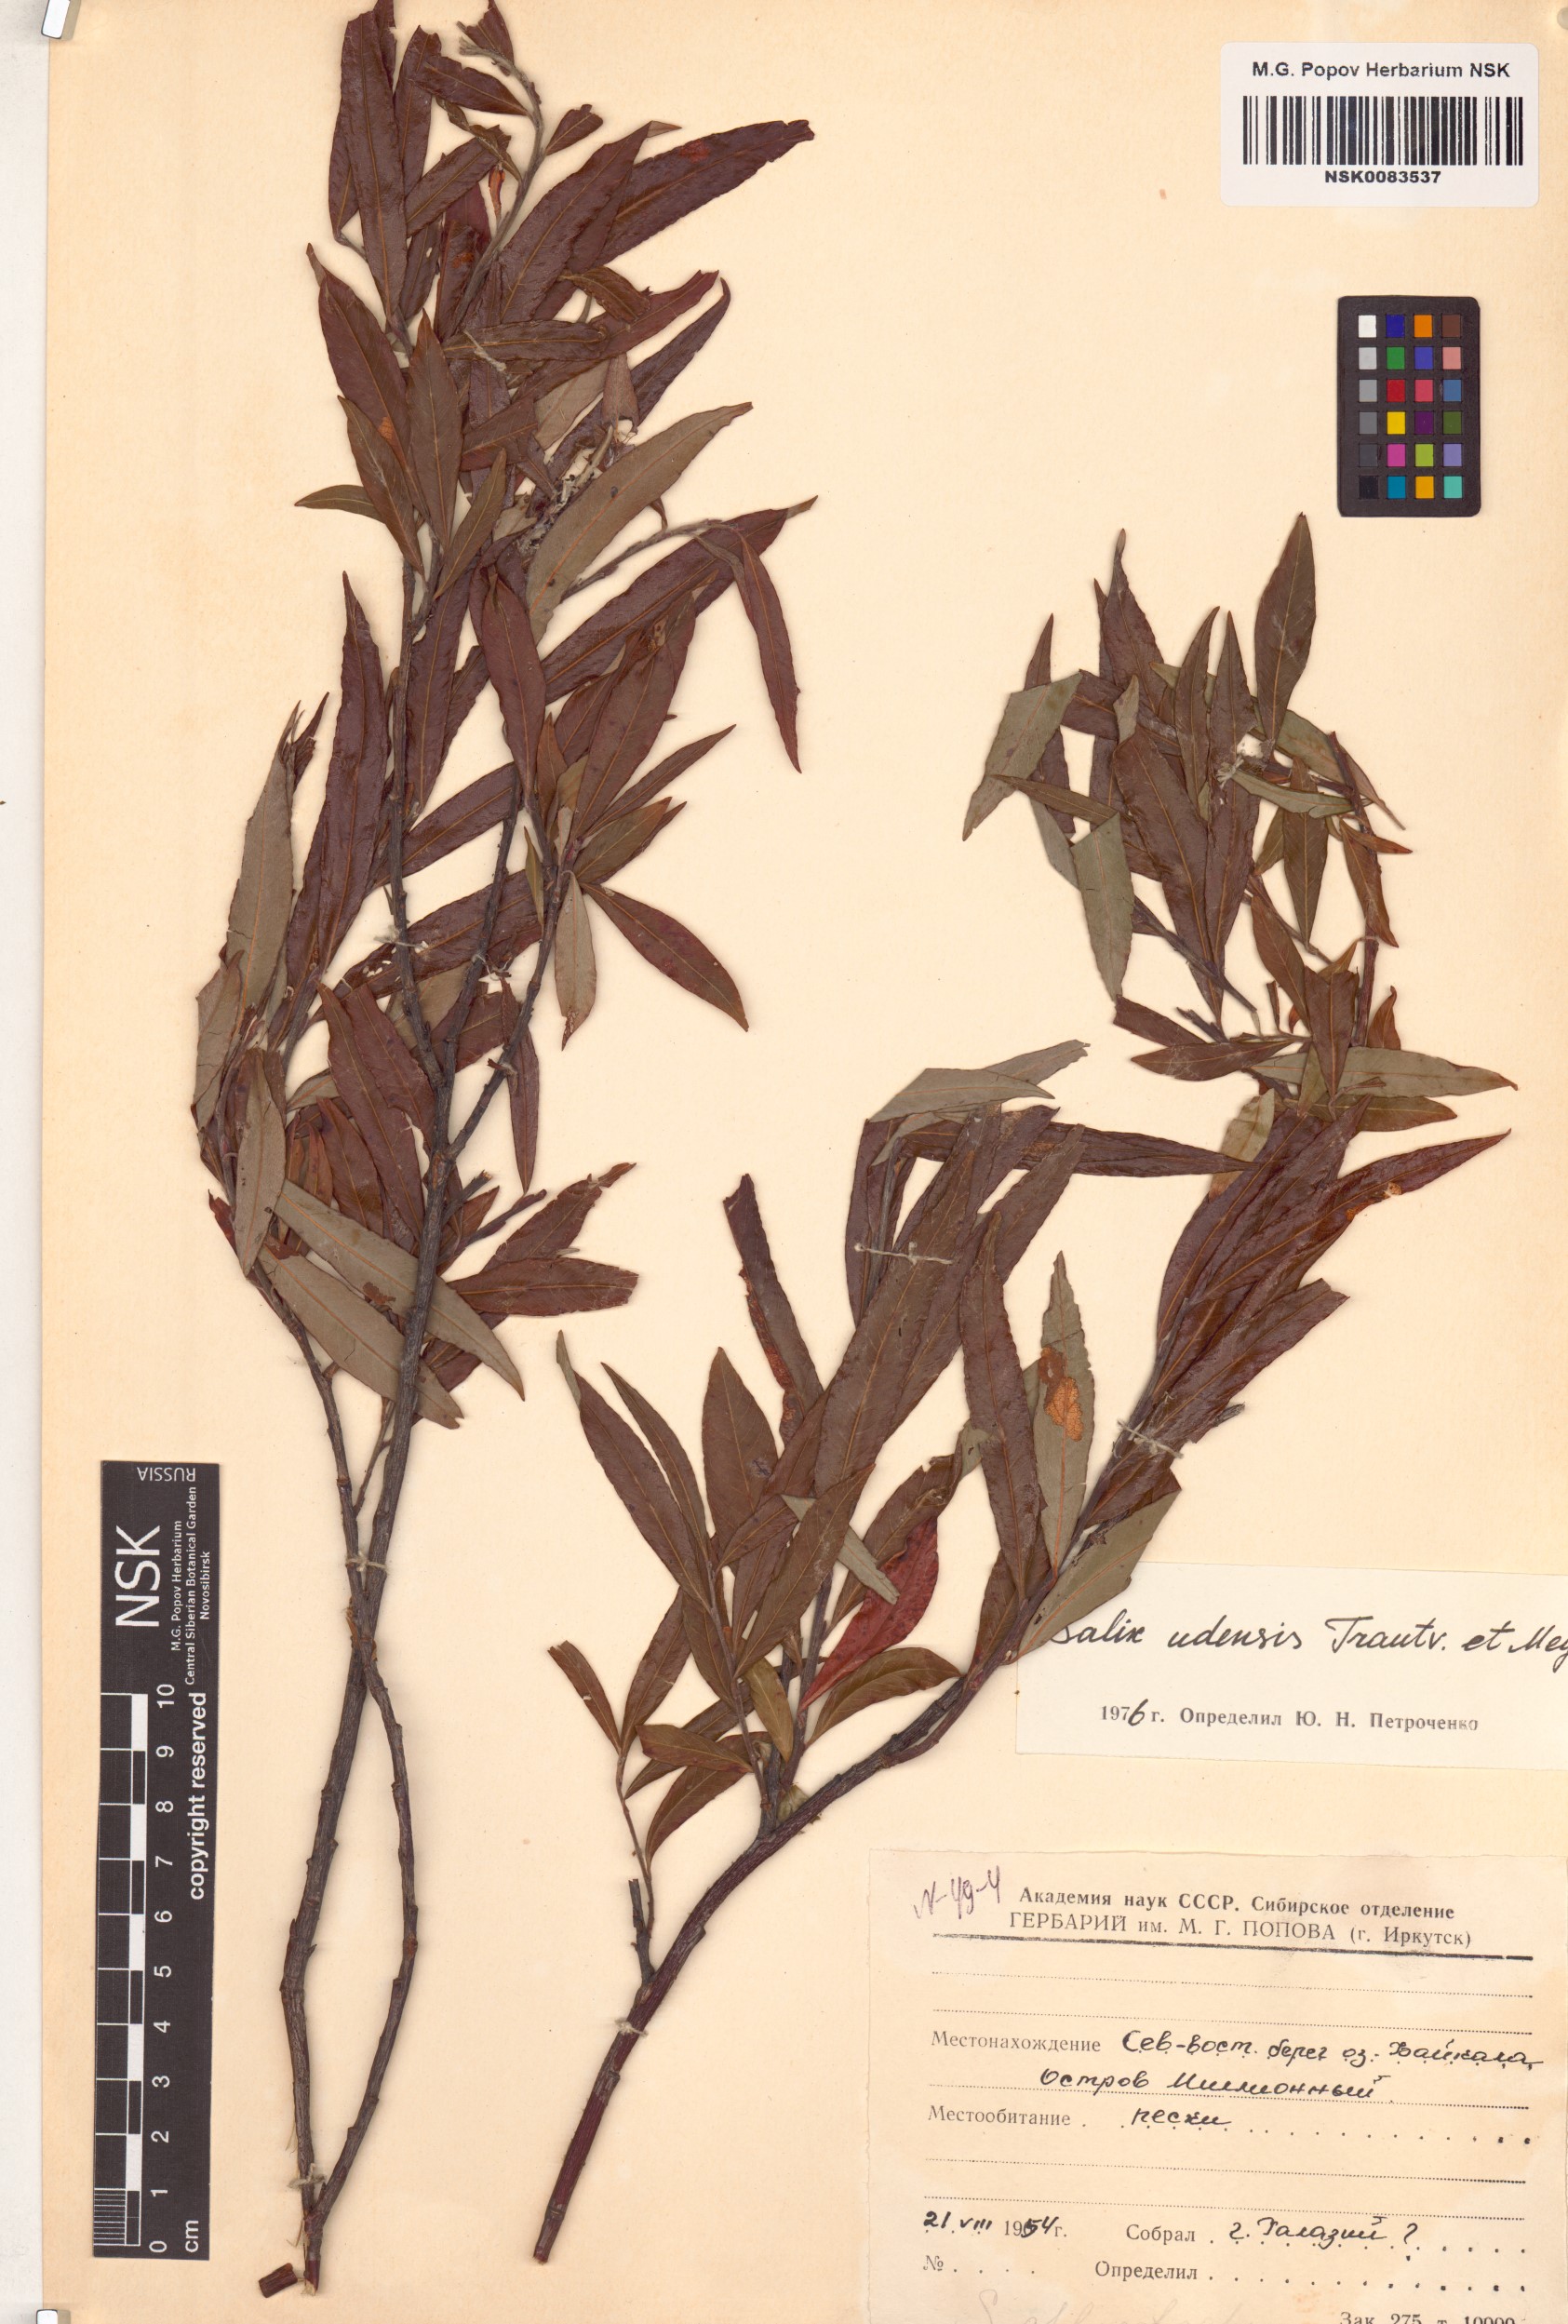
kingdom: Plantae
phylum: Tracheophyta
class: Magnoliopsida
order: Malpighiales
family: Salicaceae
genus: Salix
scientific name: Salix udensis
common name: Sachalin willow
